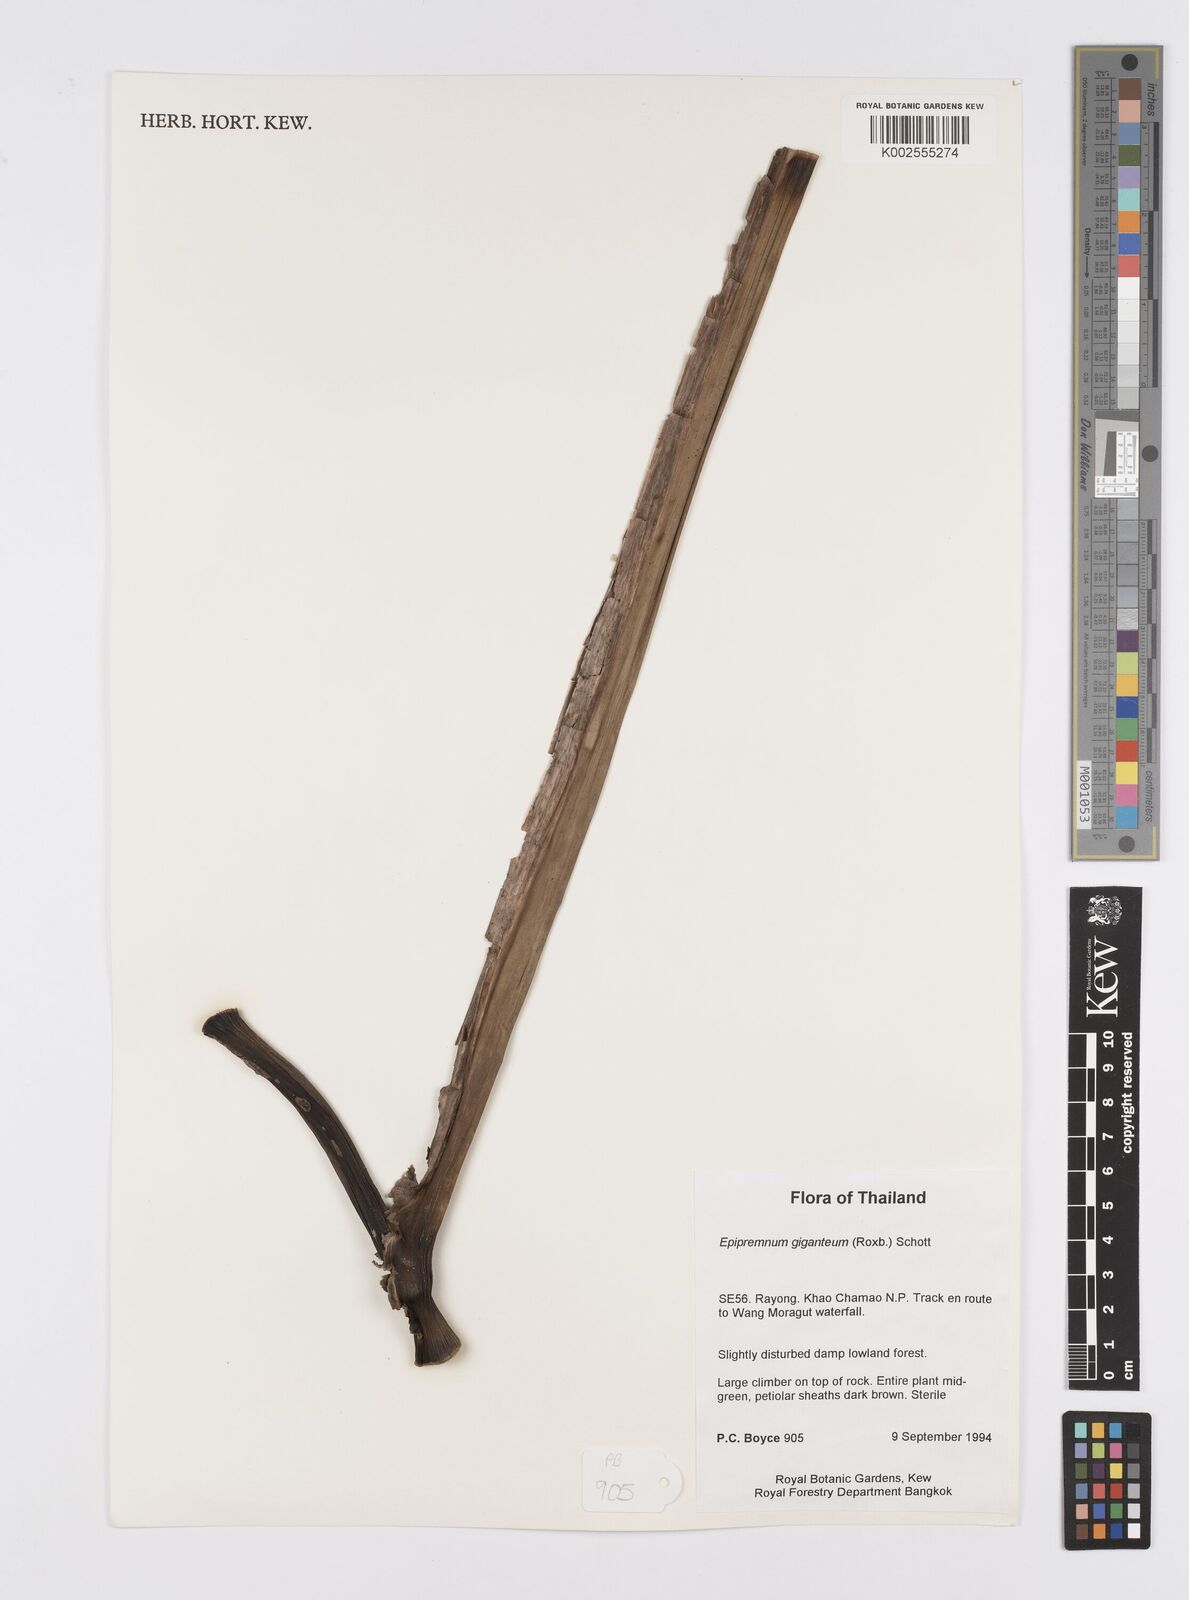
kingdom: Plantae
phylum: Tracheophyta
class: Liliopsida
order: Alismatales
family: Araceae
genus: Epipremnum
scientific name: Epipremnum giganteum
